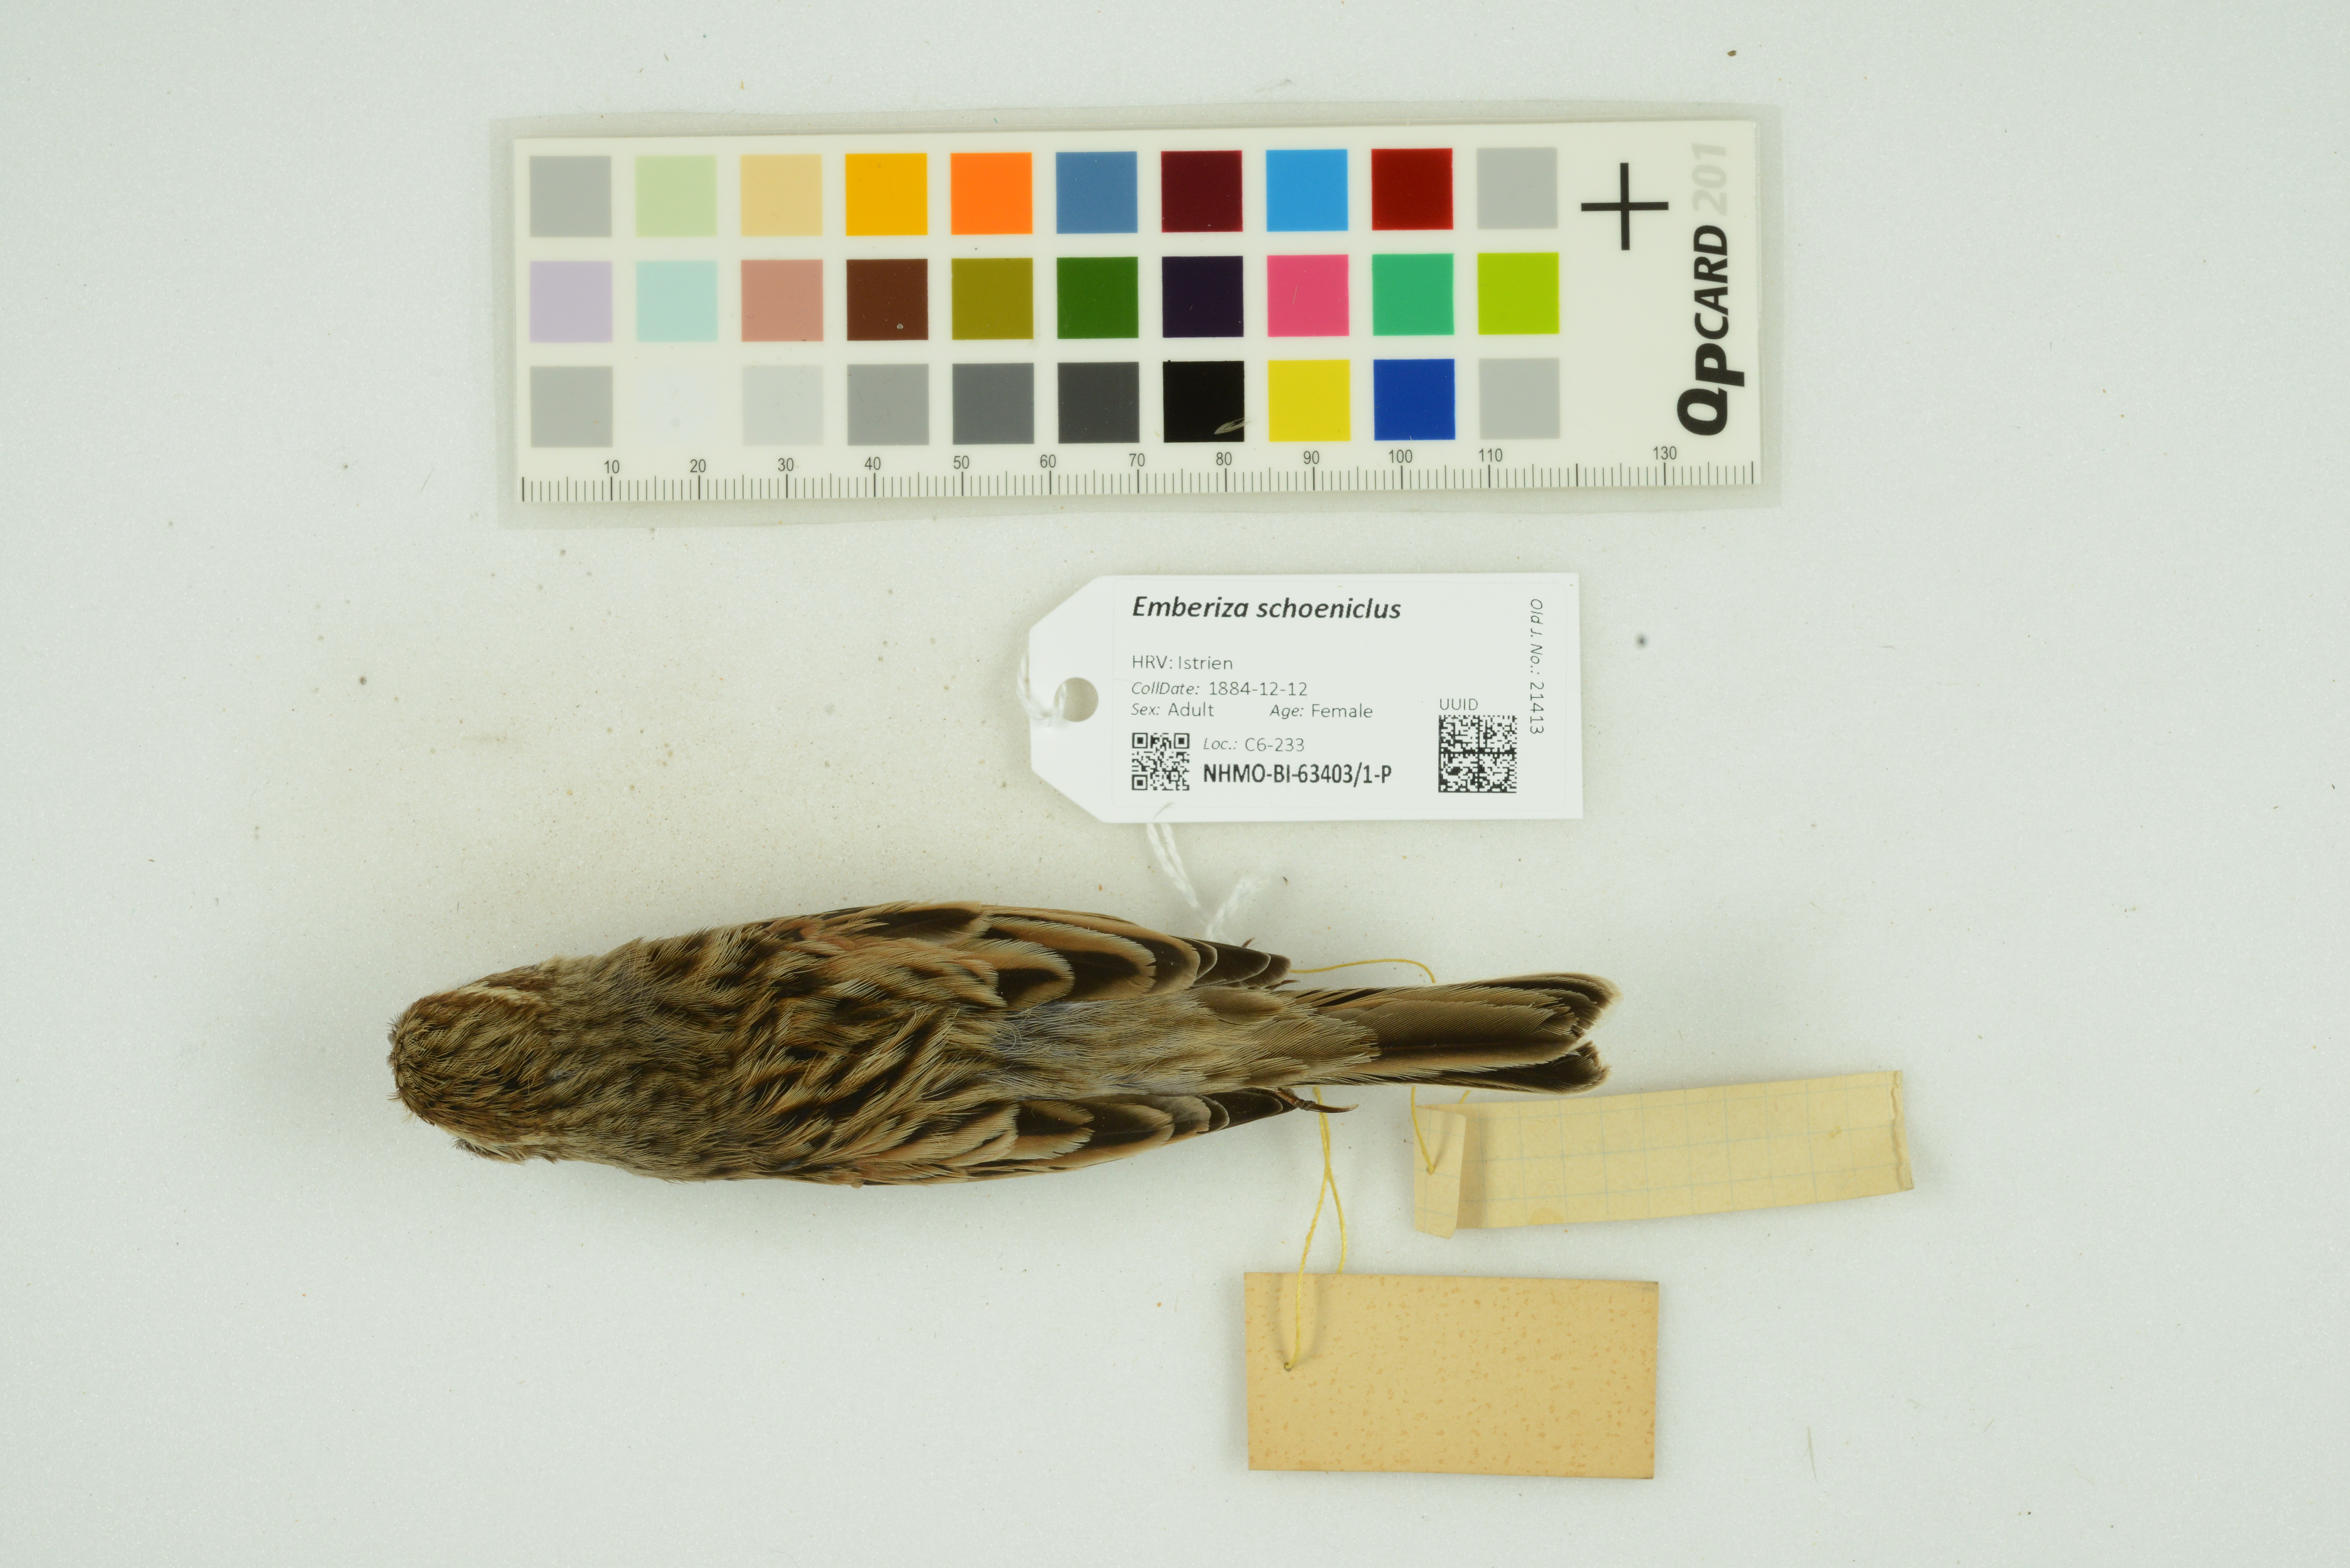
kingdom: Animalia
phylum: Chordata
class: Aves
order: Passeriformes
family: Emberizidae
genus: Emberiza
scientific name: Emberiza schoeniclus
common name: Reed bunting
